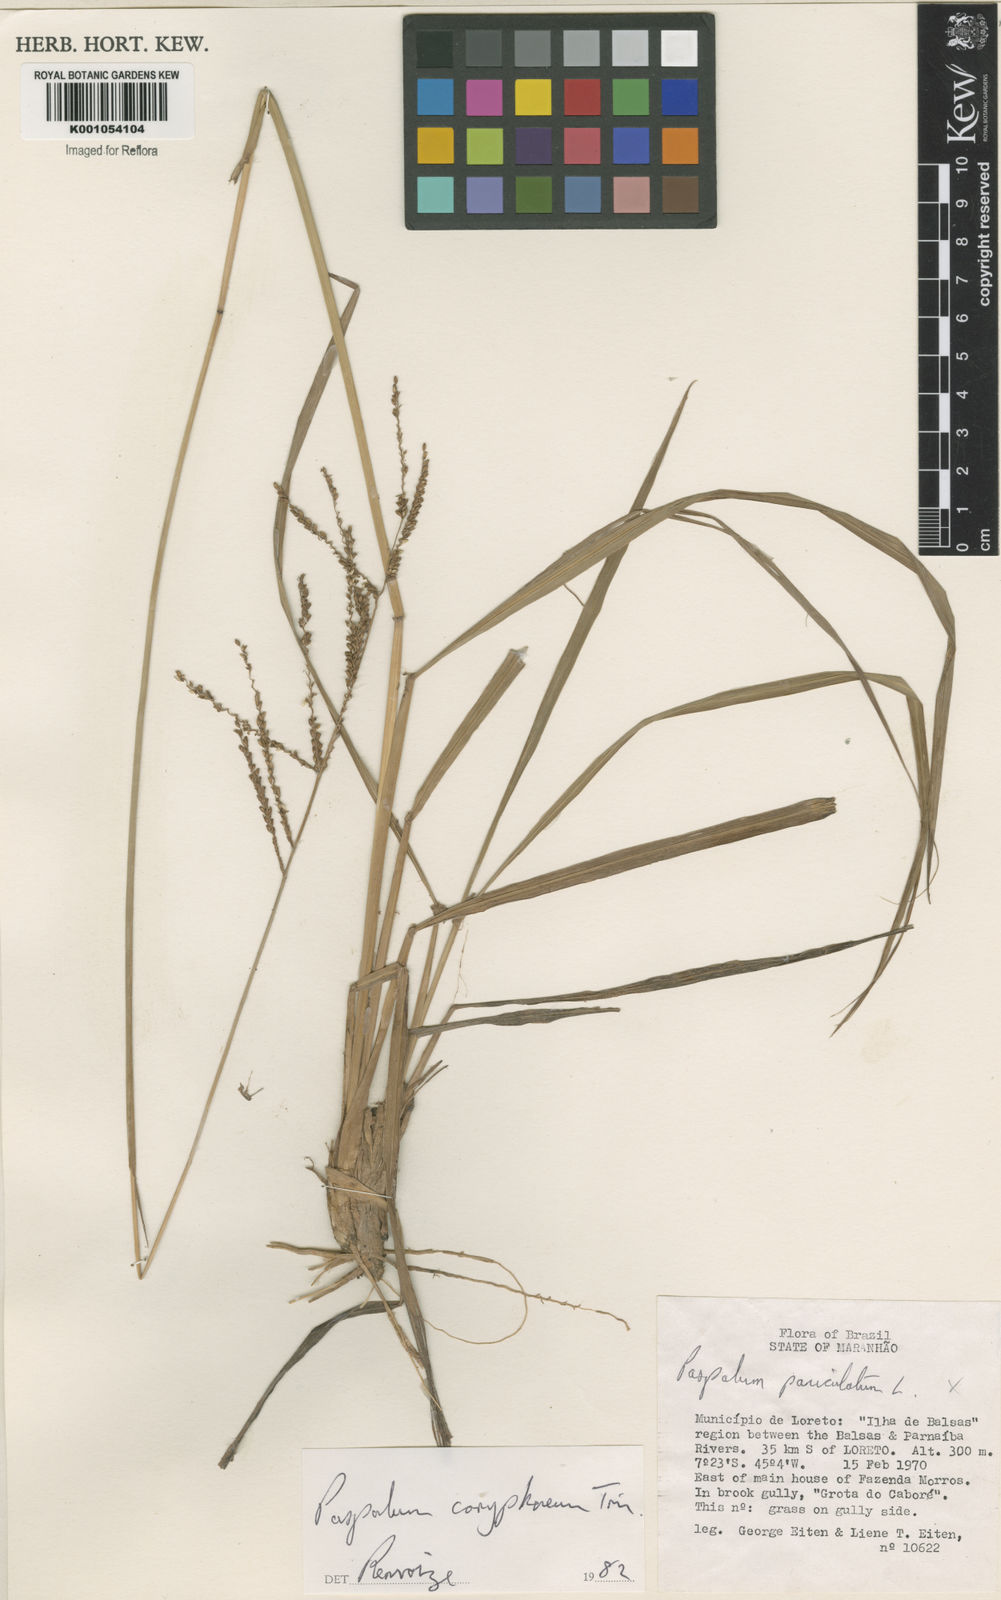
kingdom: Plantae
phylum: Tracheophyta
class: Liliopsida
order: Poales
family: Poaceae
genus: Paspalum
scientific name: Paspalum coryphaeum
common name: Emperor crowngrass
